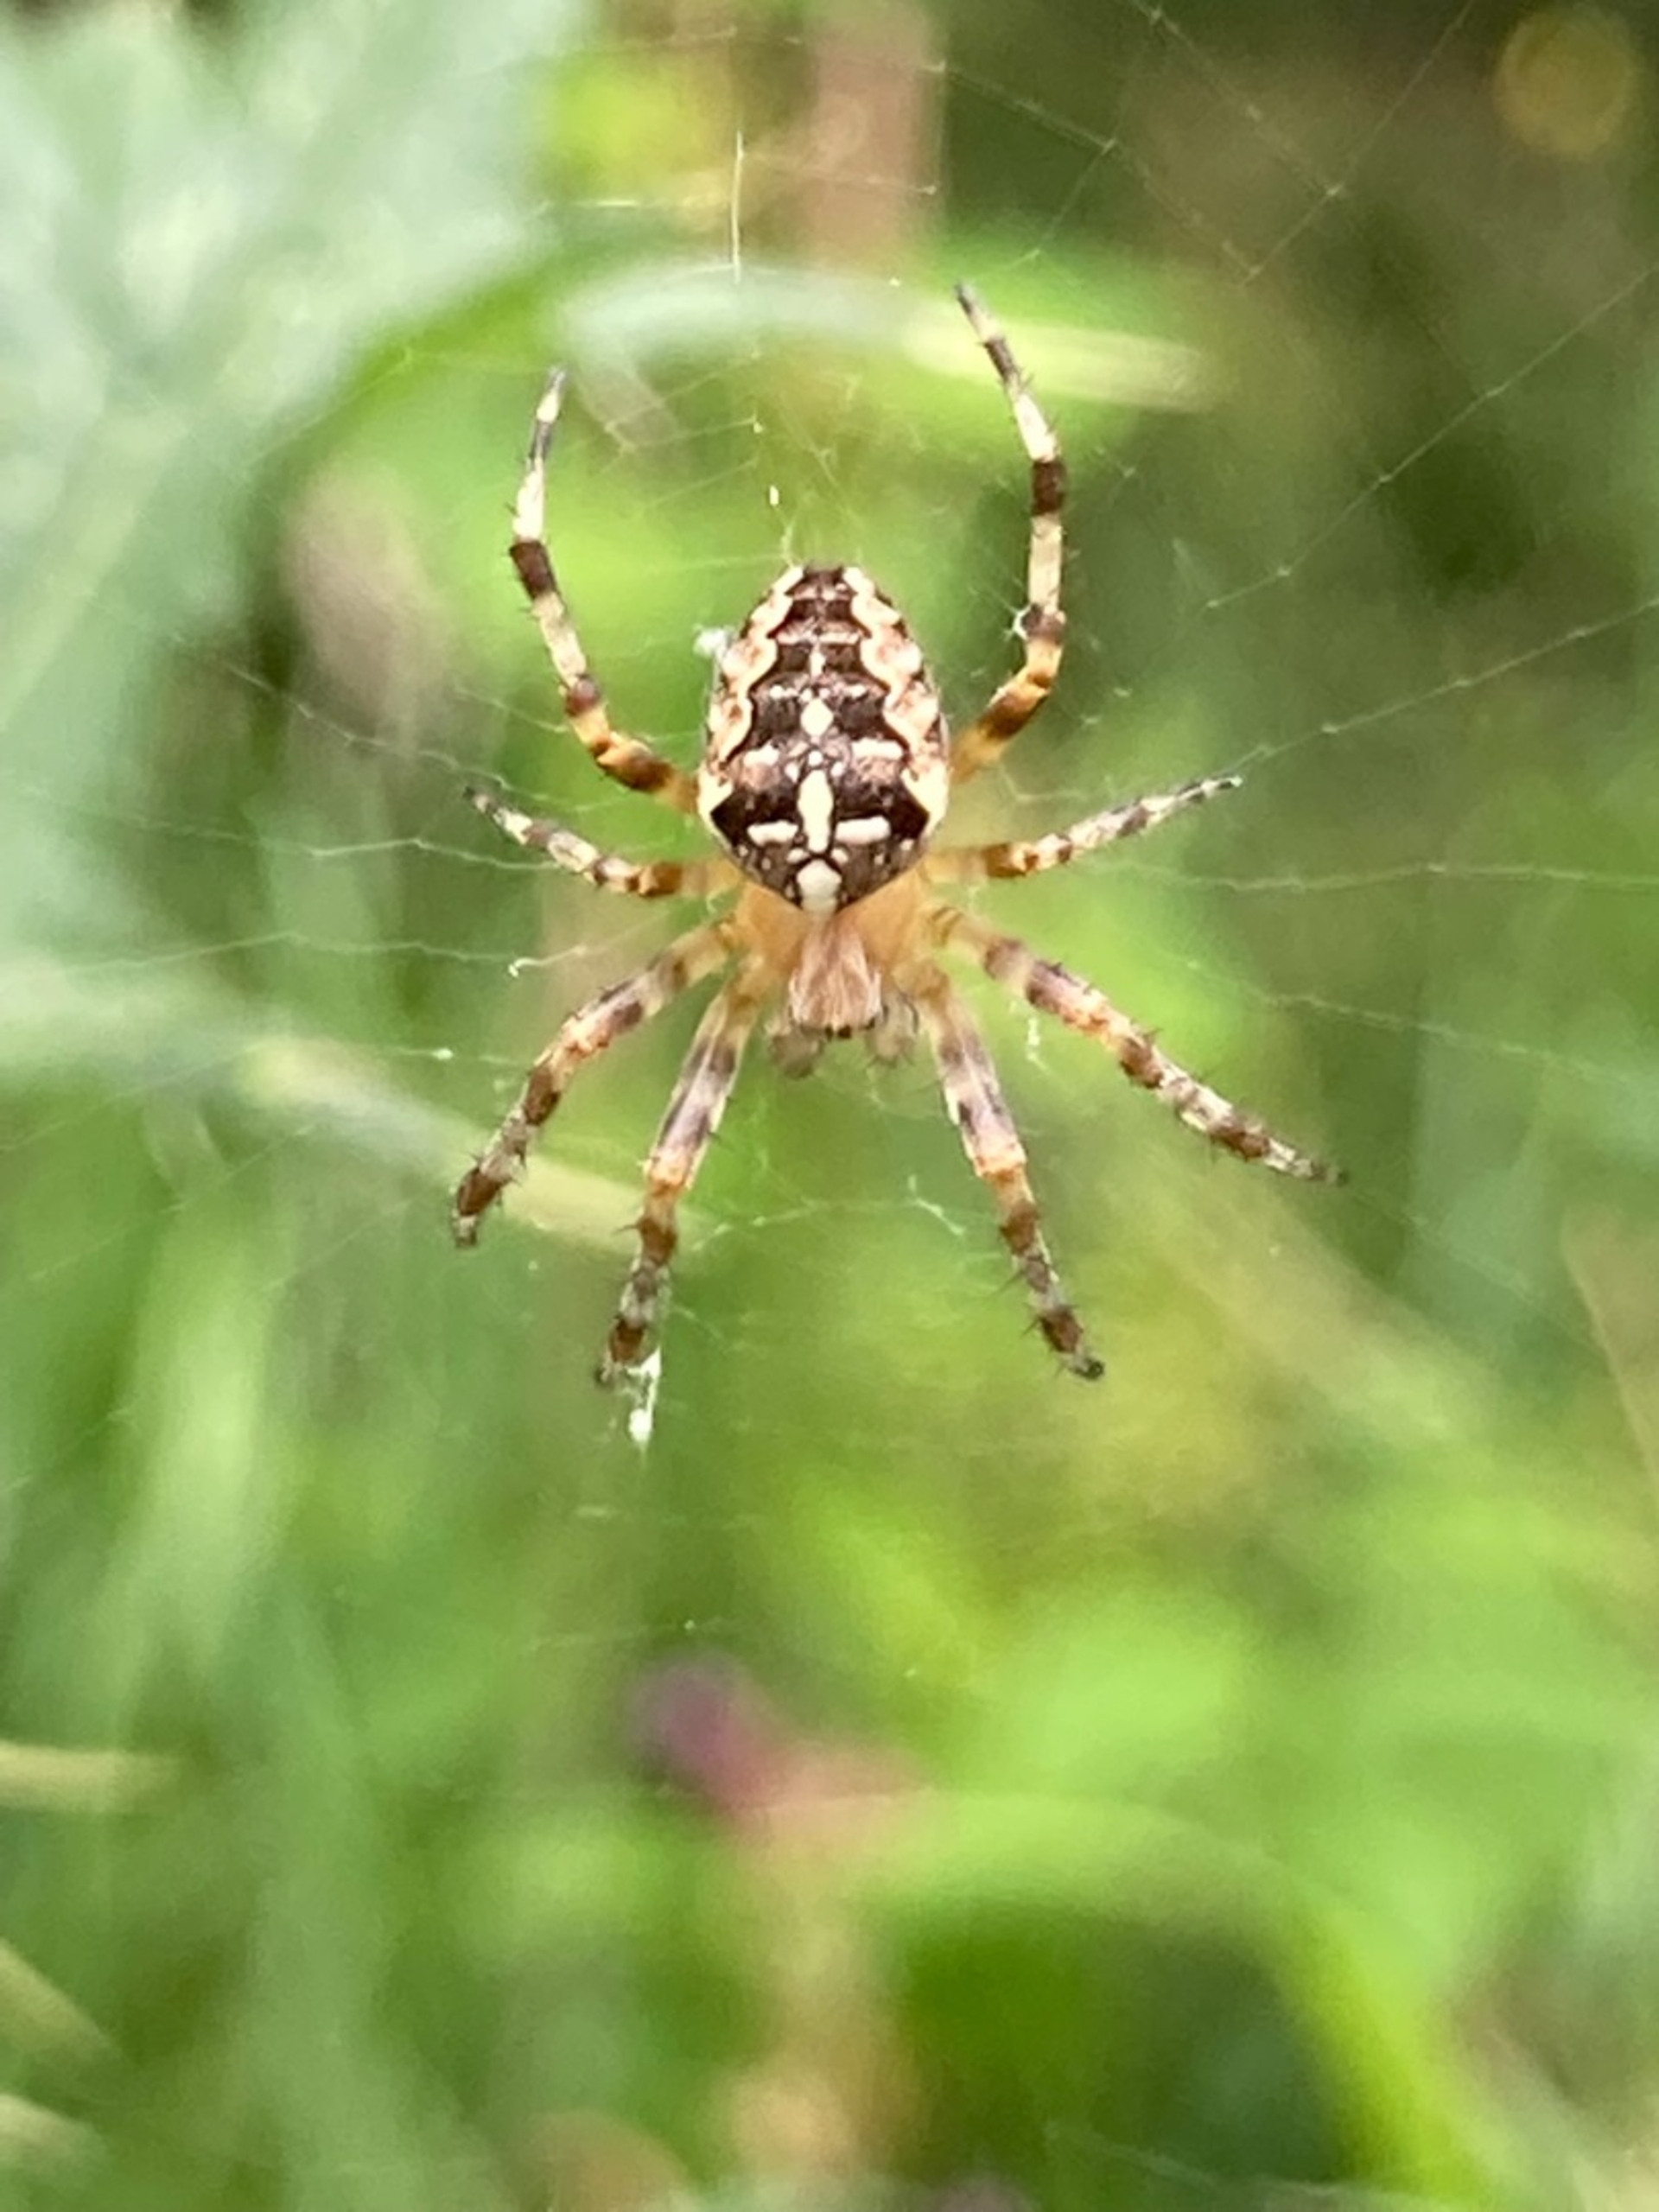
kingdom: Animalia
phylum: Arthropoda
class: Arachnida
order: Araneae
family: Araneidae
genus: Araneus
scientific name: Araneus diadematus
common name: Korsedderkop
